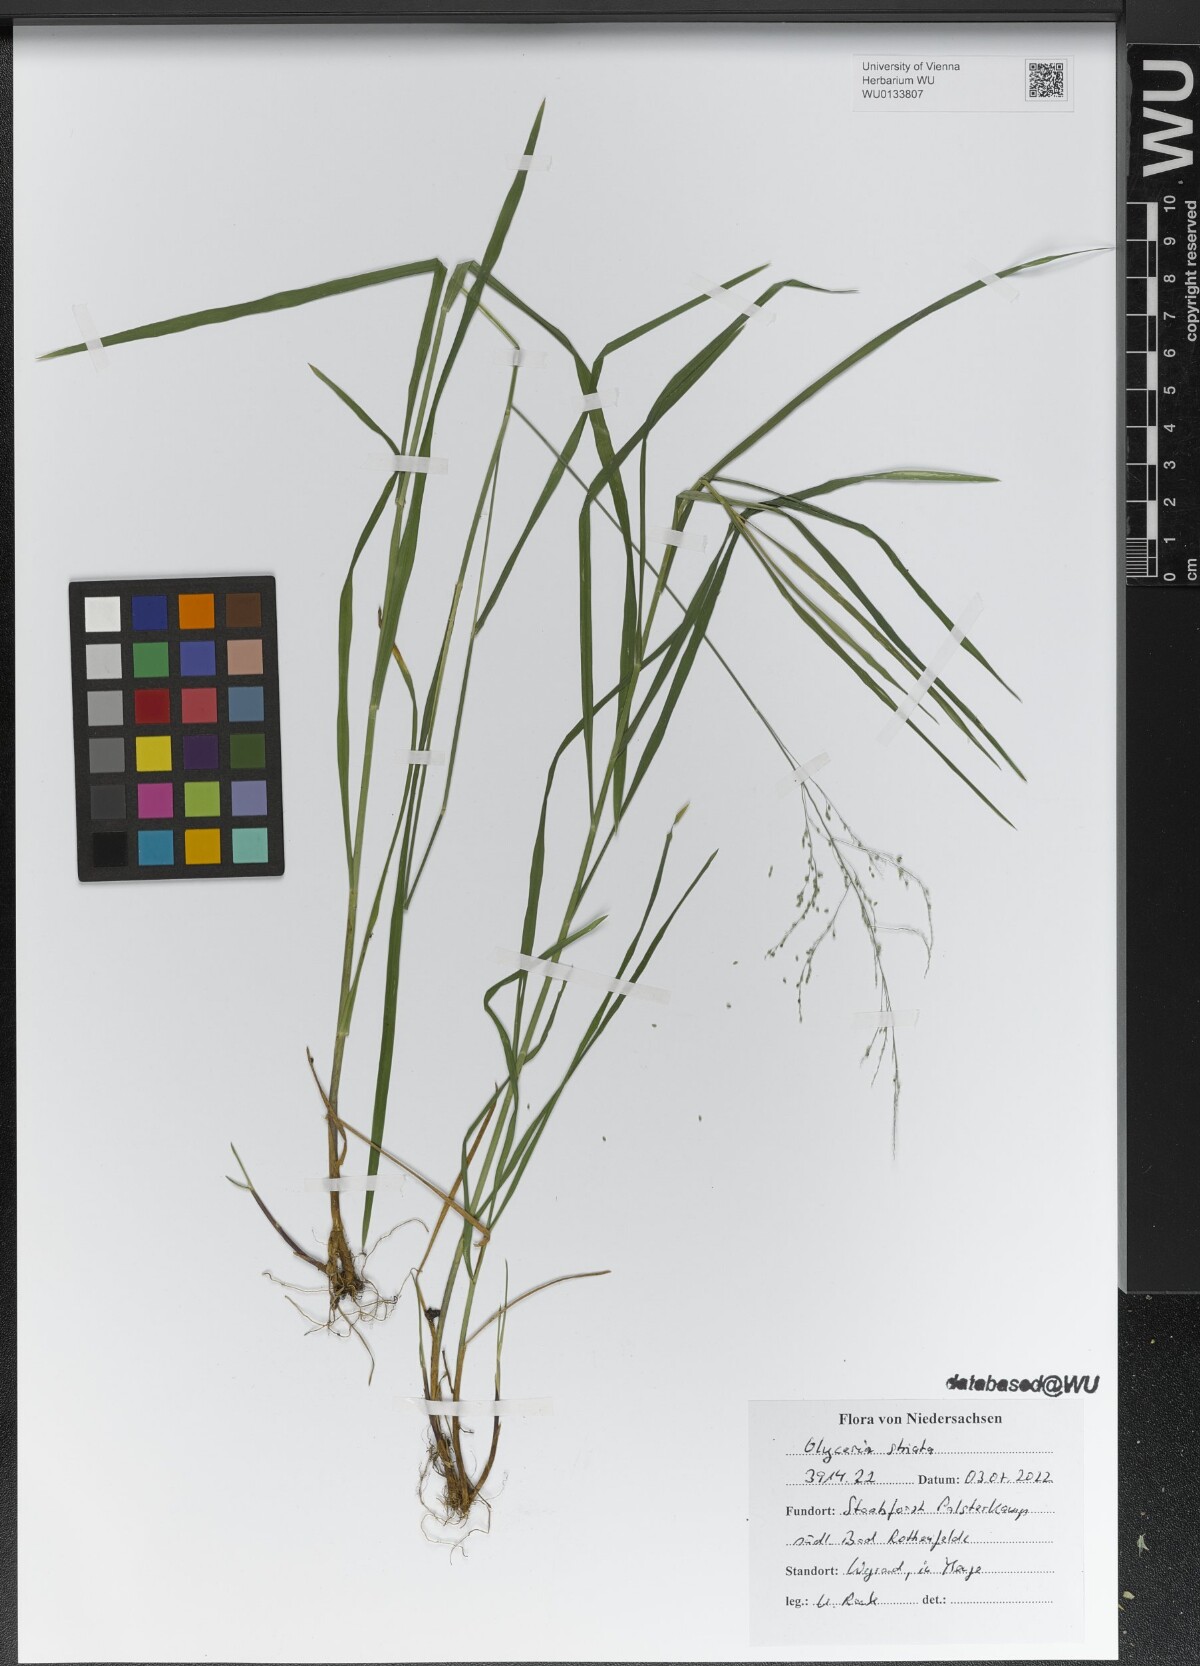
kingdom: Plantae
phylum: Tracheophyta
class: Liliopsida
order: Poales
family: Poaceae
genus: Glyceria
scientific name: Glyceria striata
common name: Fowl manna grass
